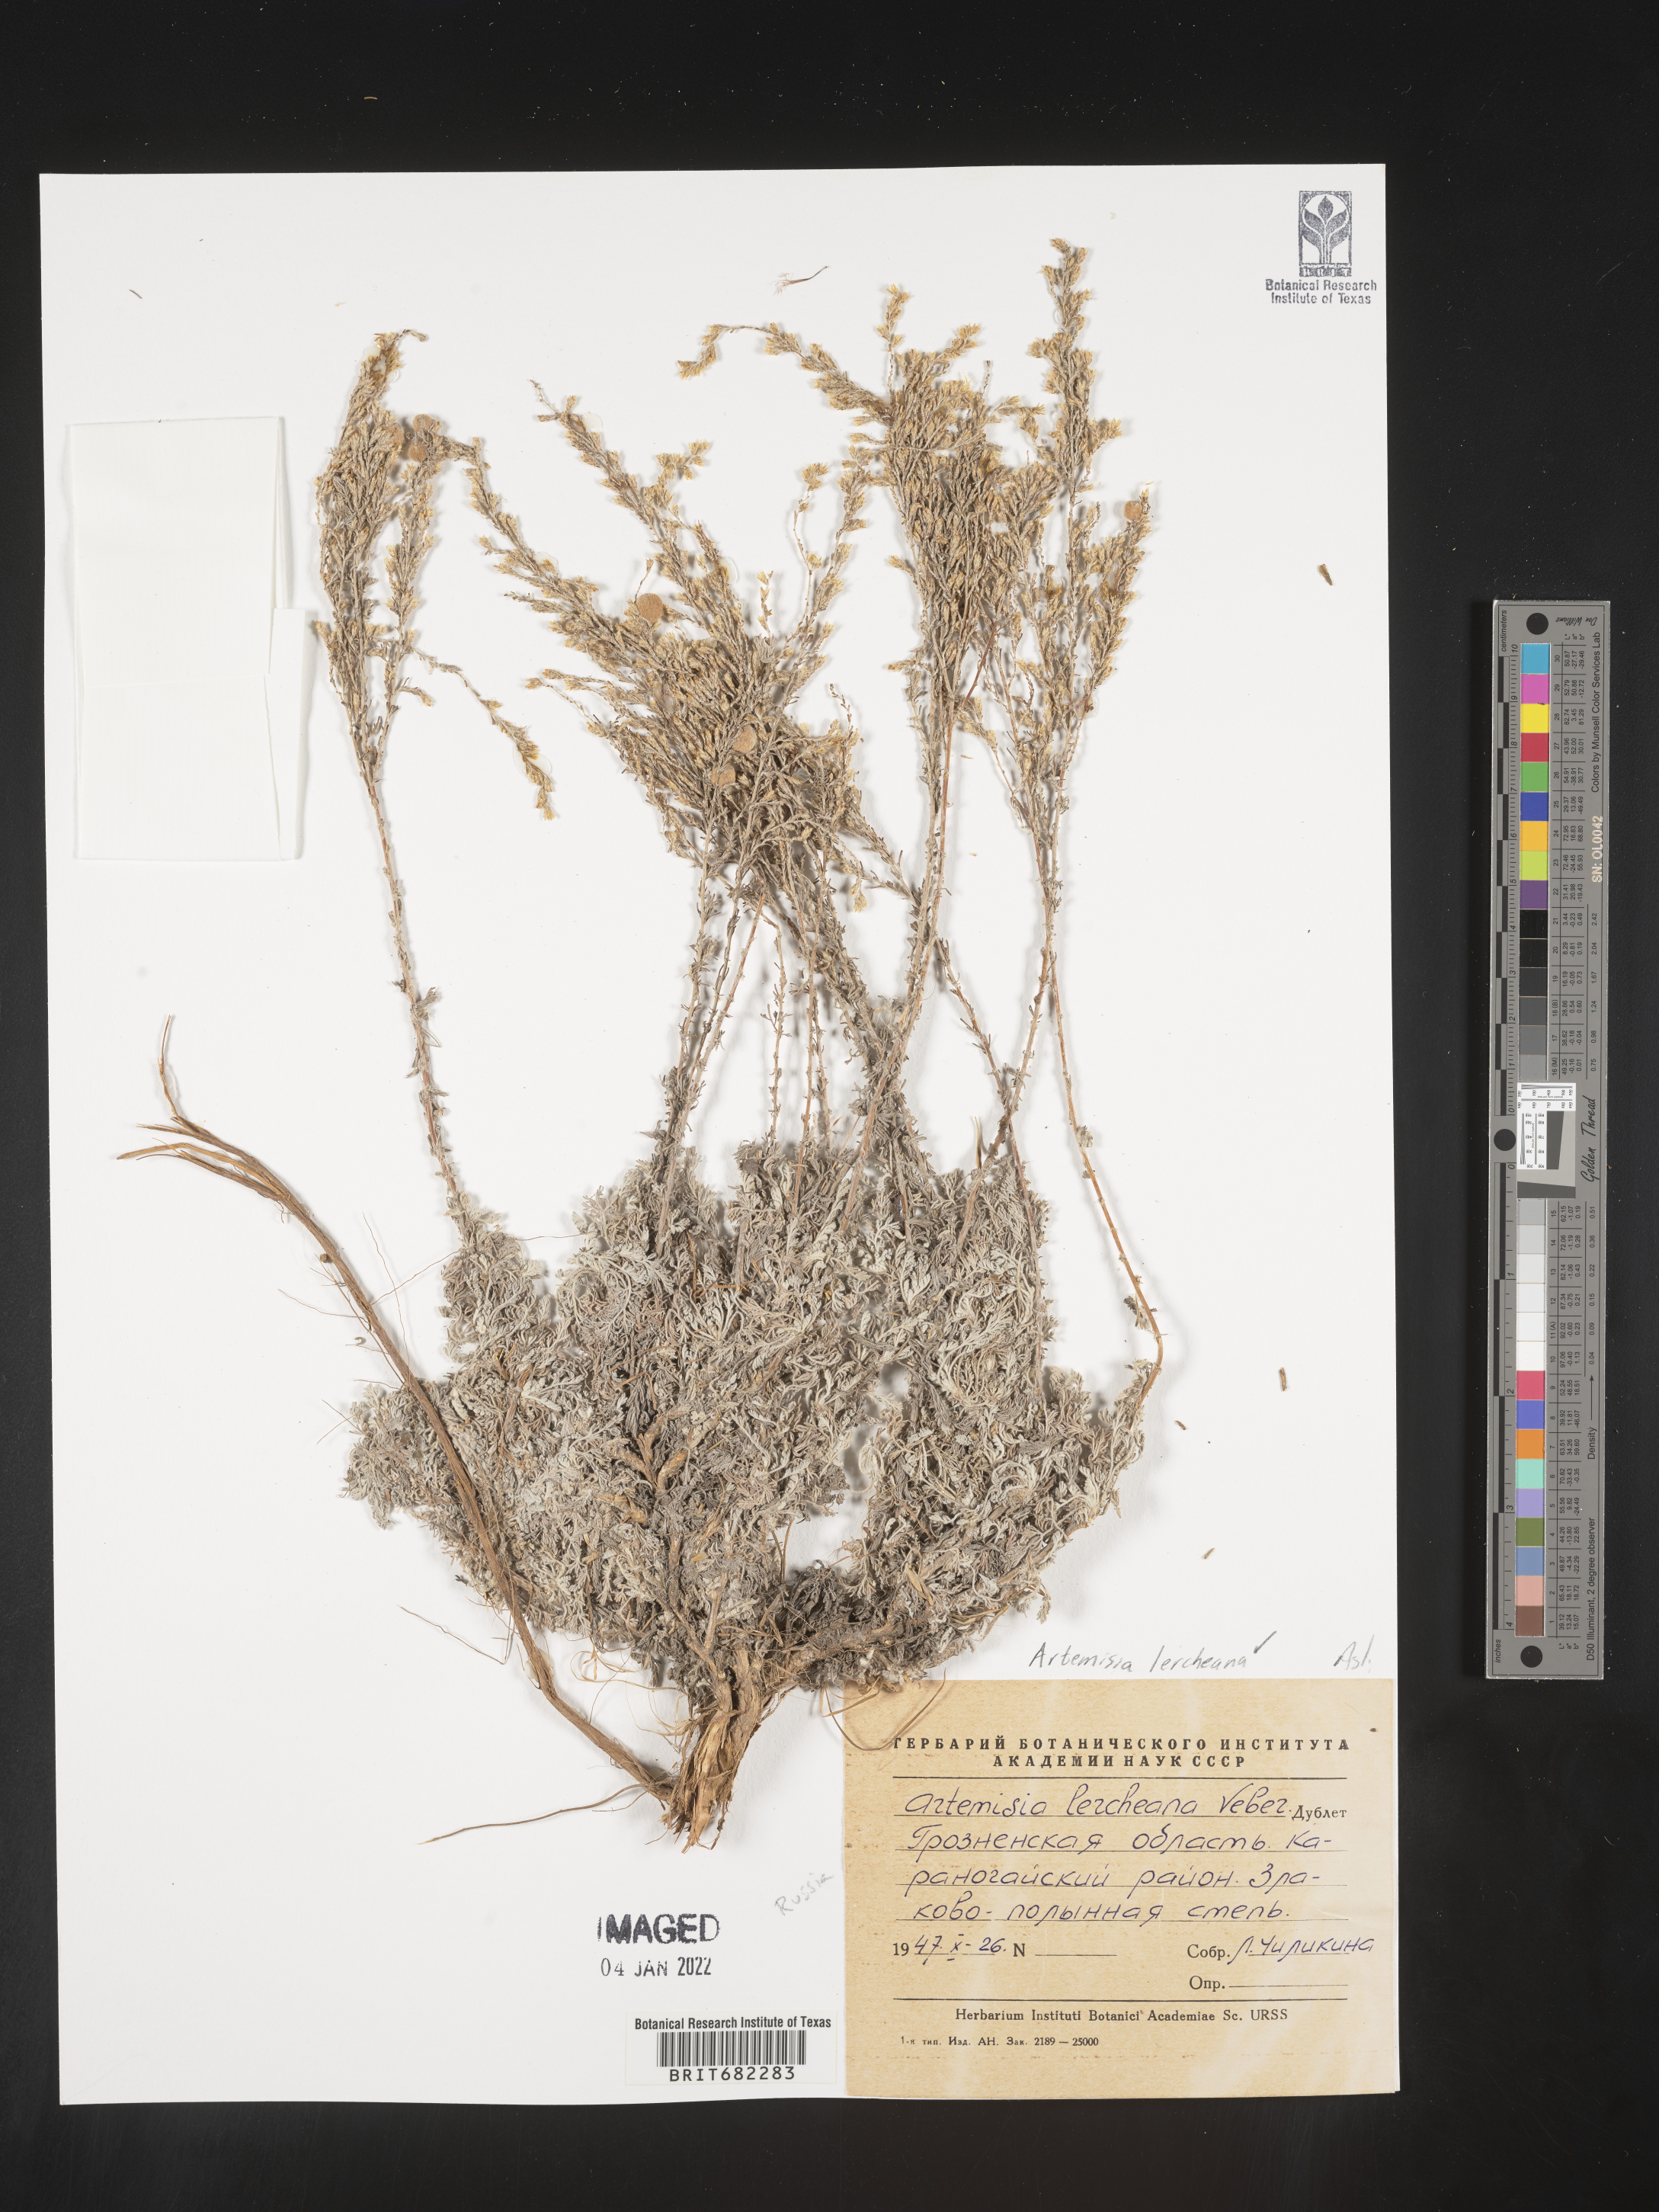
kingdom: Plantae
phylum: Tracheophyta
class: Magnoliopsida
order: Asterales
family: Asteraceae
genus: Artemisia
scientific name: Artemisia
